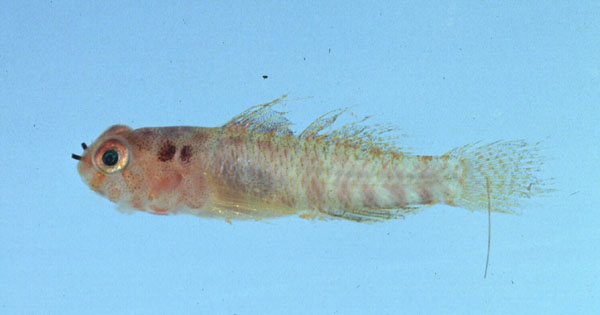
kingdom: Animalia
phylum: Chordata
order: Perciformes
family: Gobiidae
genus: Eviota
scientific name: Eviota sparsa
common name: Sparse eviota
